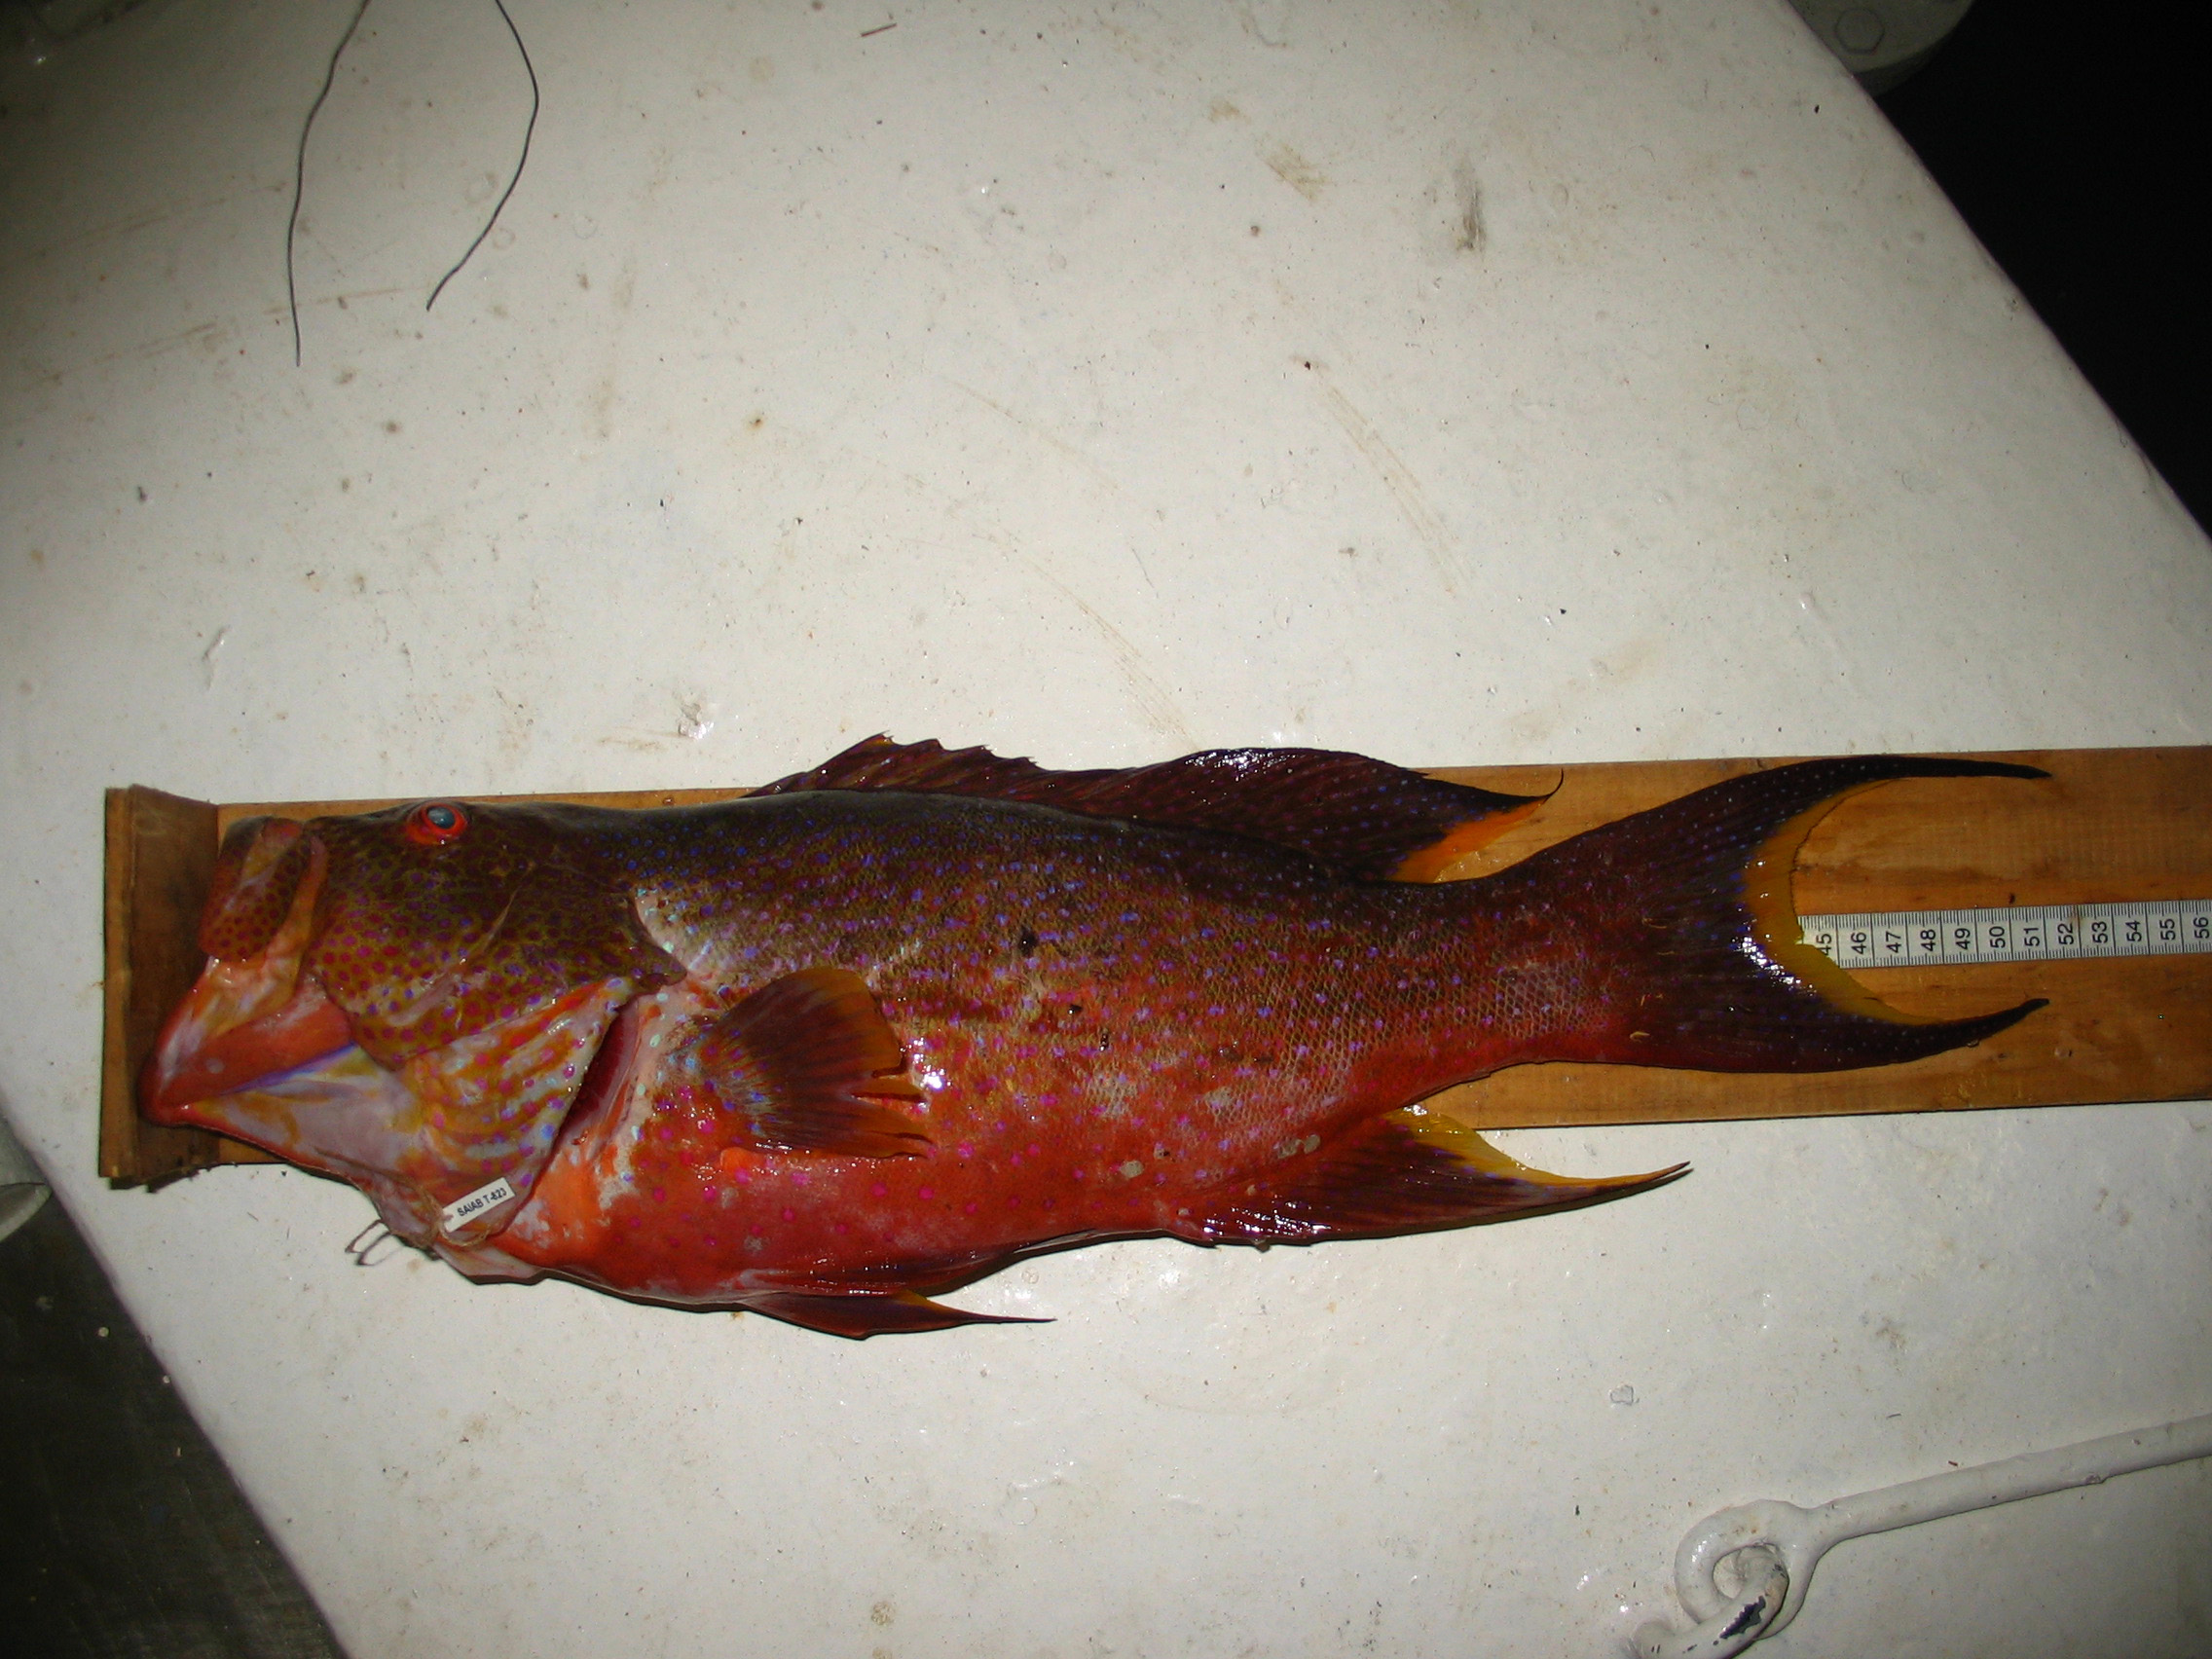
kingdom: Animalia
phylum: Chordata
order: Perciformes
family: Serranidae
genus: Variola
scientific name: Variola louti
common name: Yellow-edged lyretail
